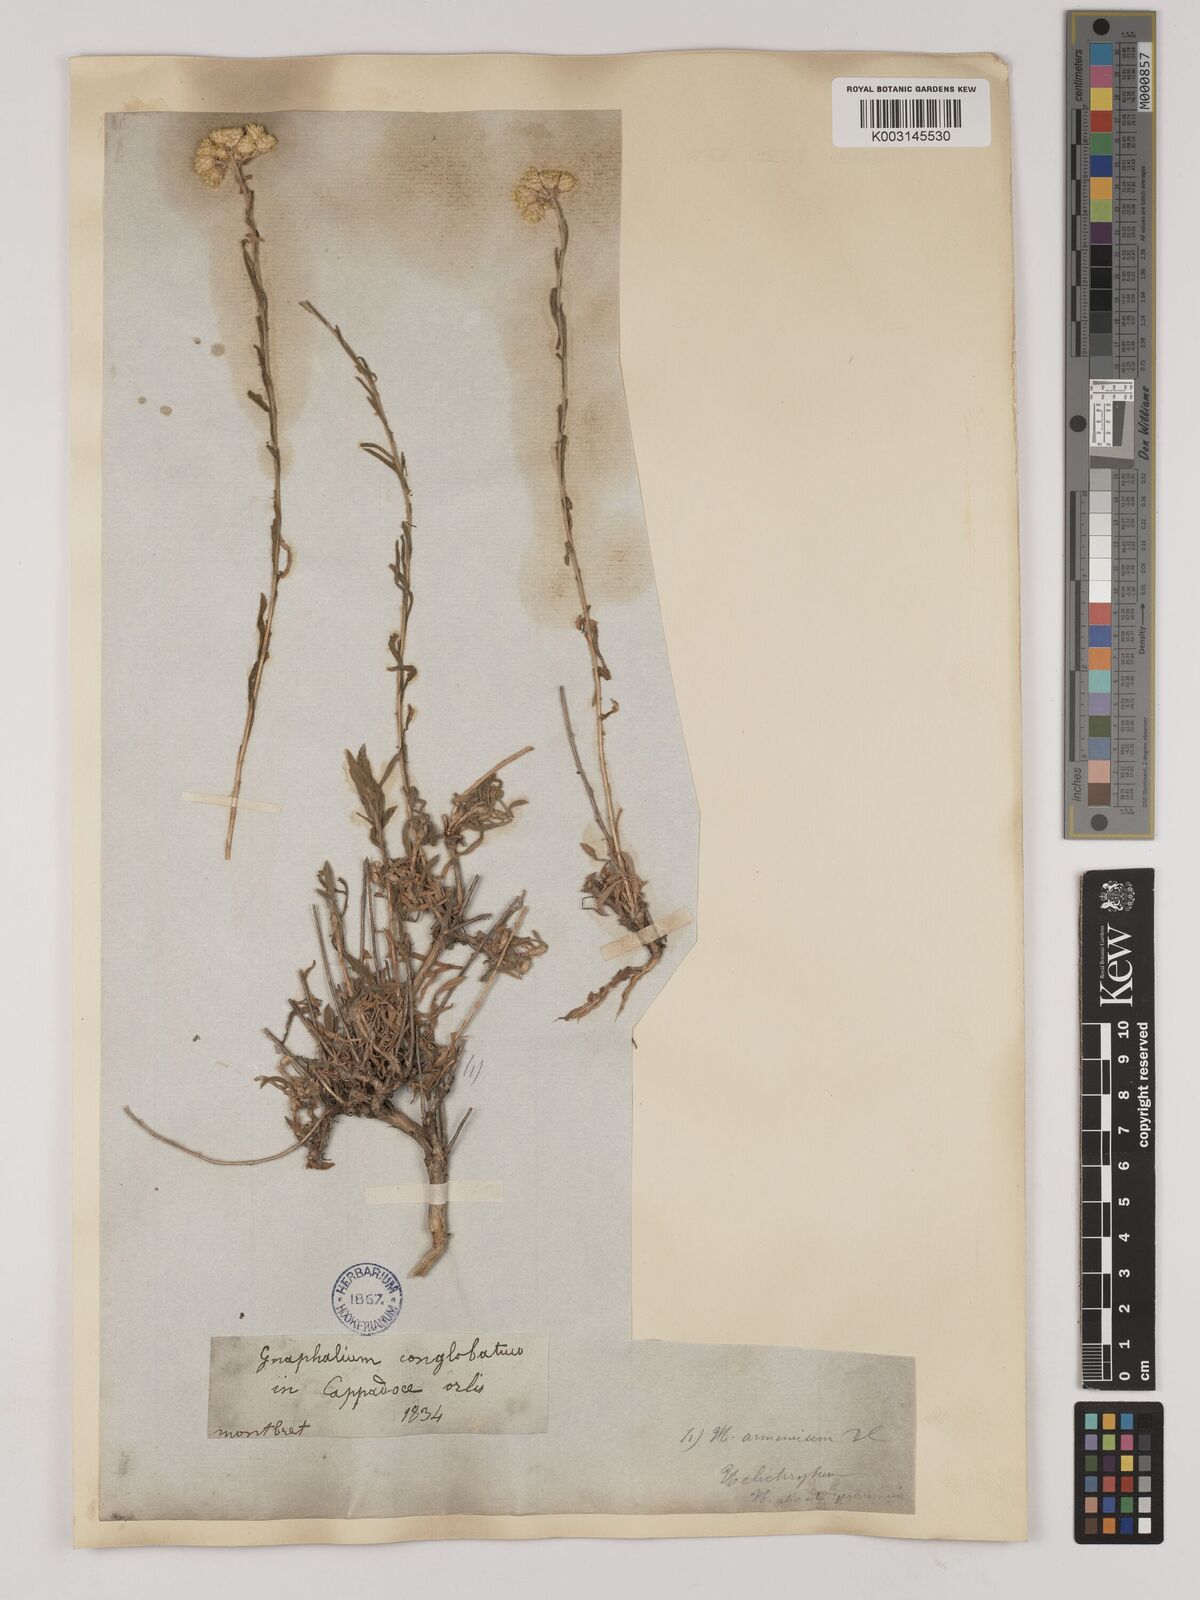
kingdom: Plantae
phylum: Tracheophyta
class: Magnoliopsida
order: Asterales
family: Asteraceae
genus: Helichrysum
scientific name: Helichrysum armenium
